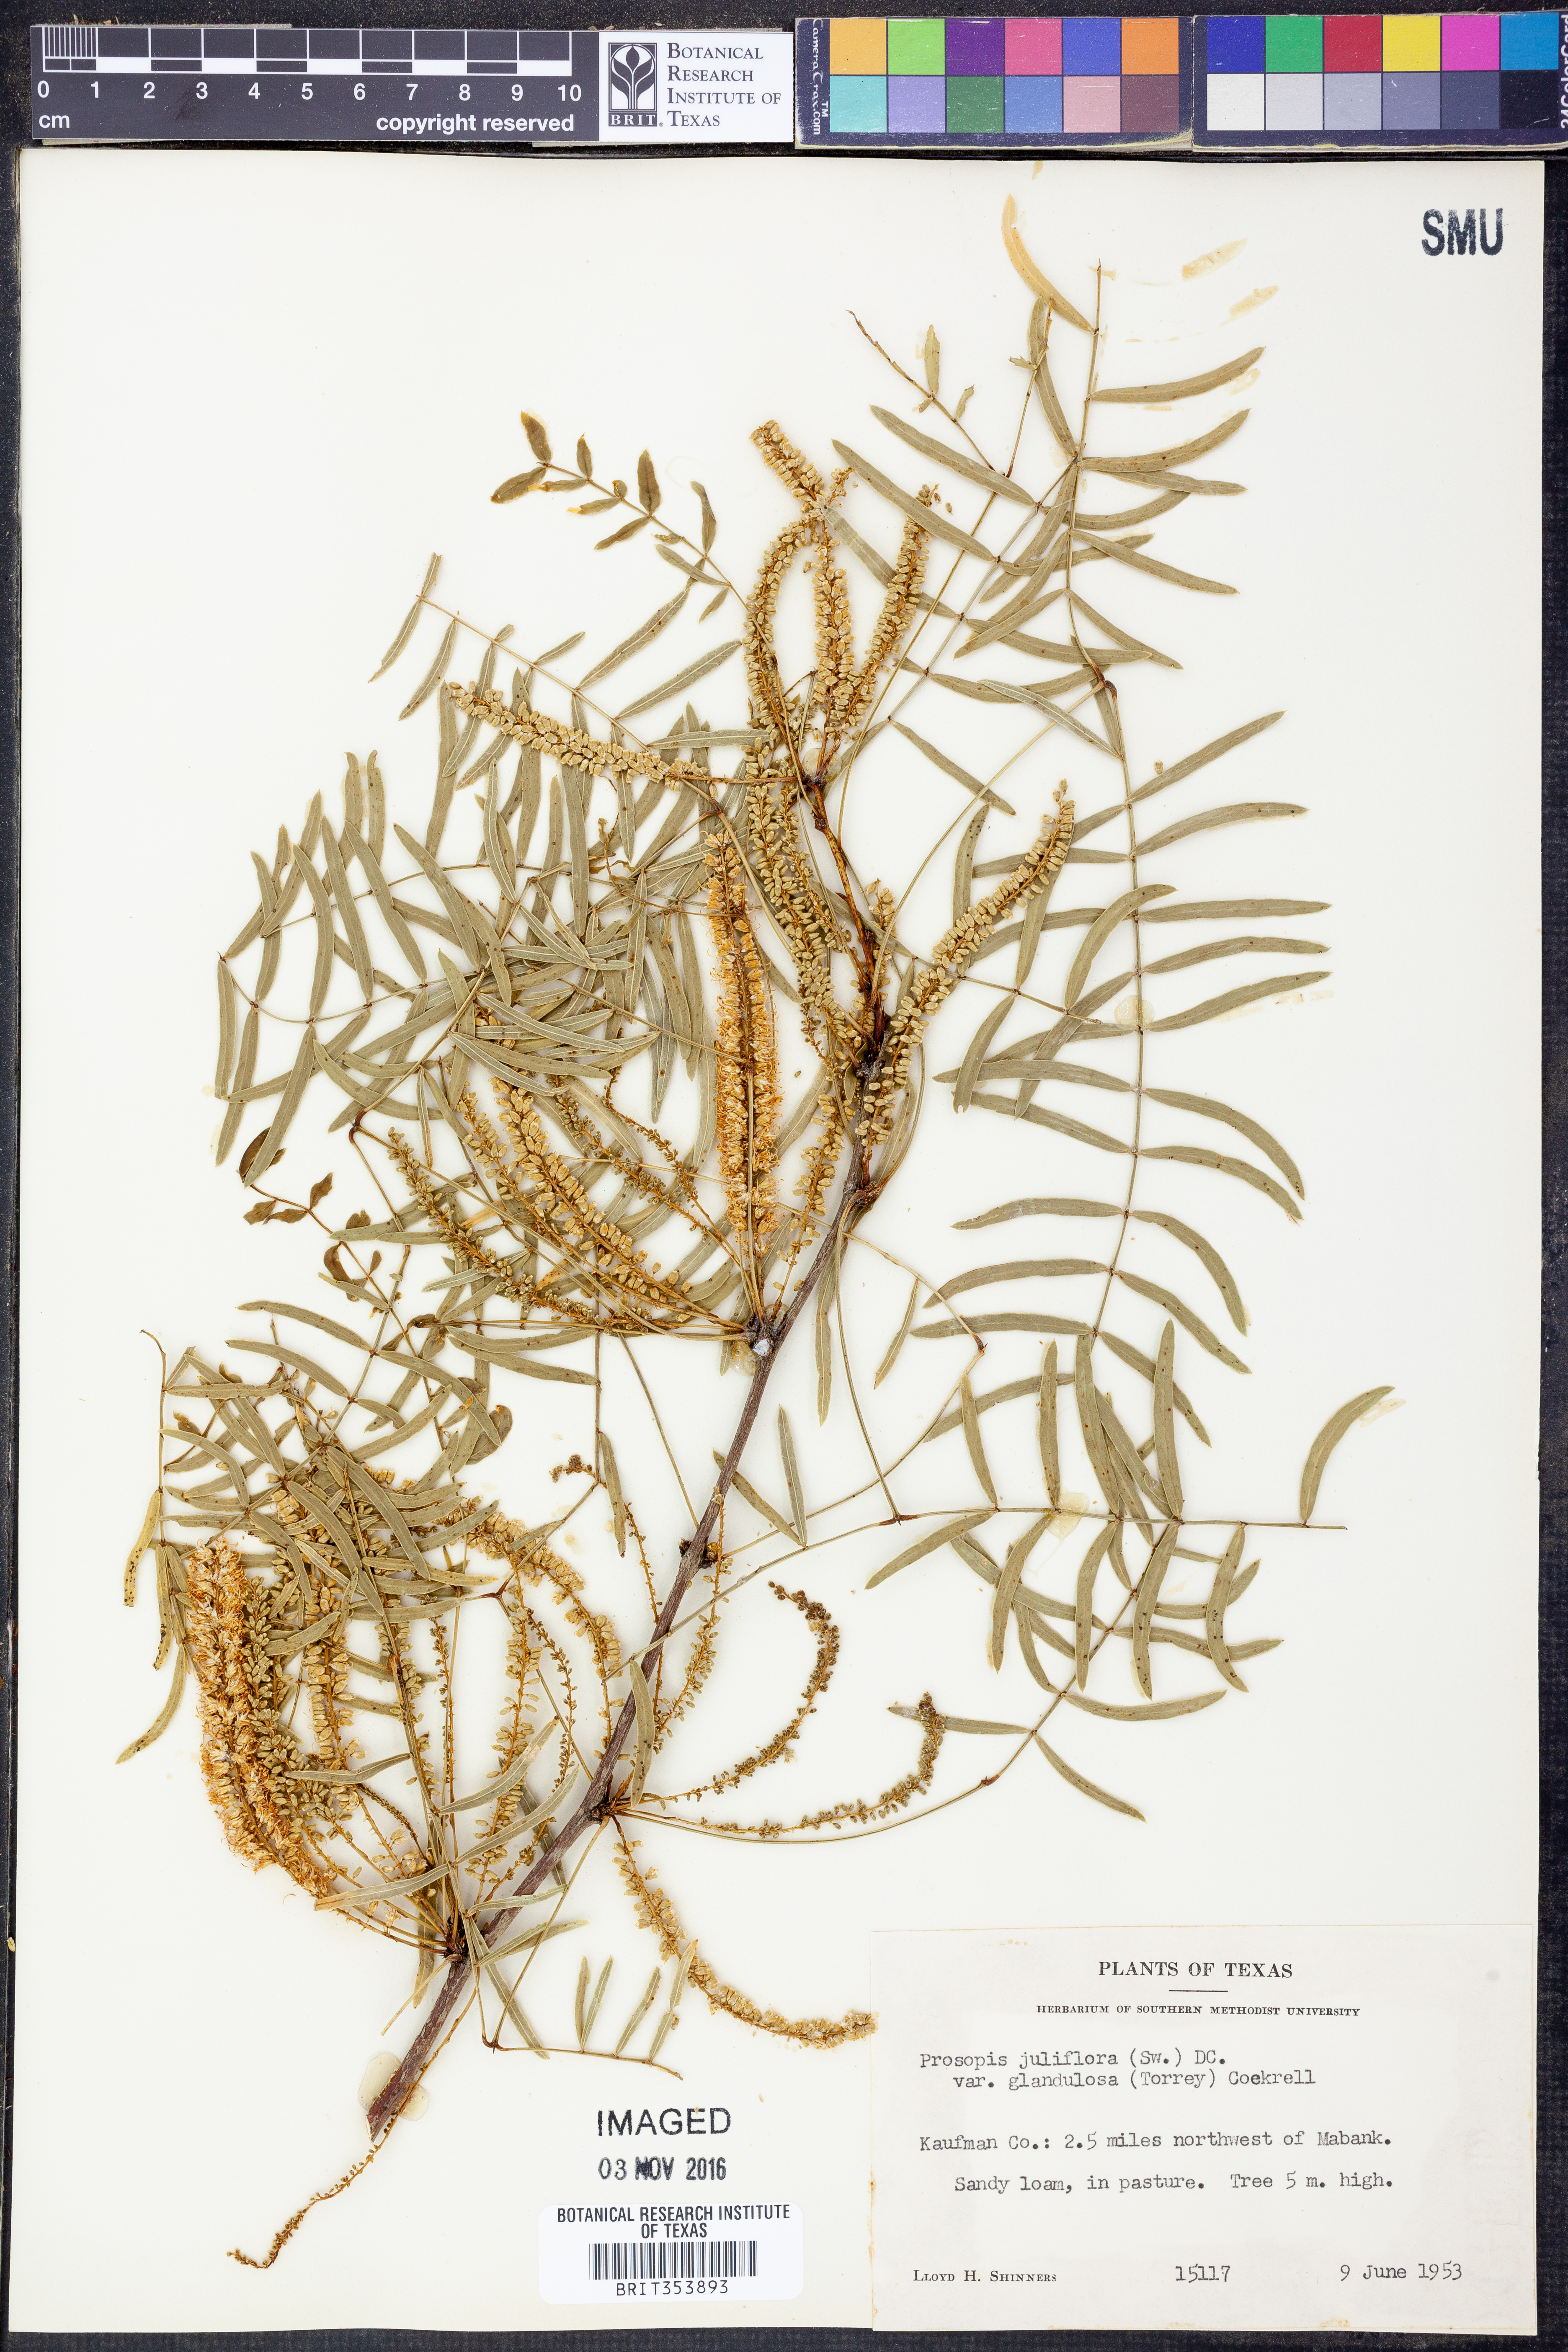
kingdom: Plantae
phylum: Tracheophyta
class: Magnoliopsida
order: Fabales
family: Fabaceae
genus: Prosopis
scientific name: Prosopis glandulosa
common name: Honey mesquite
